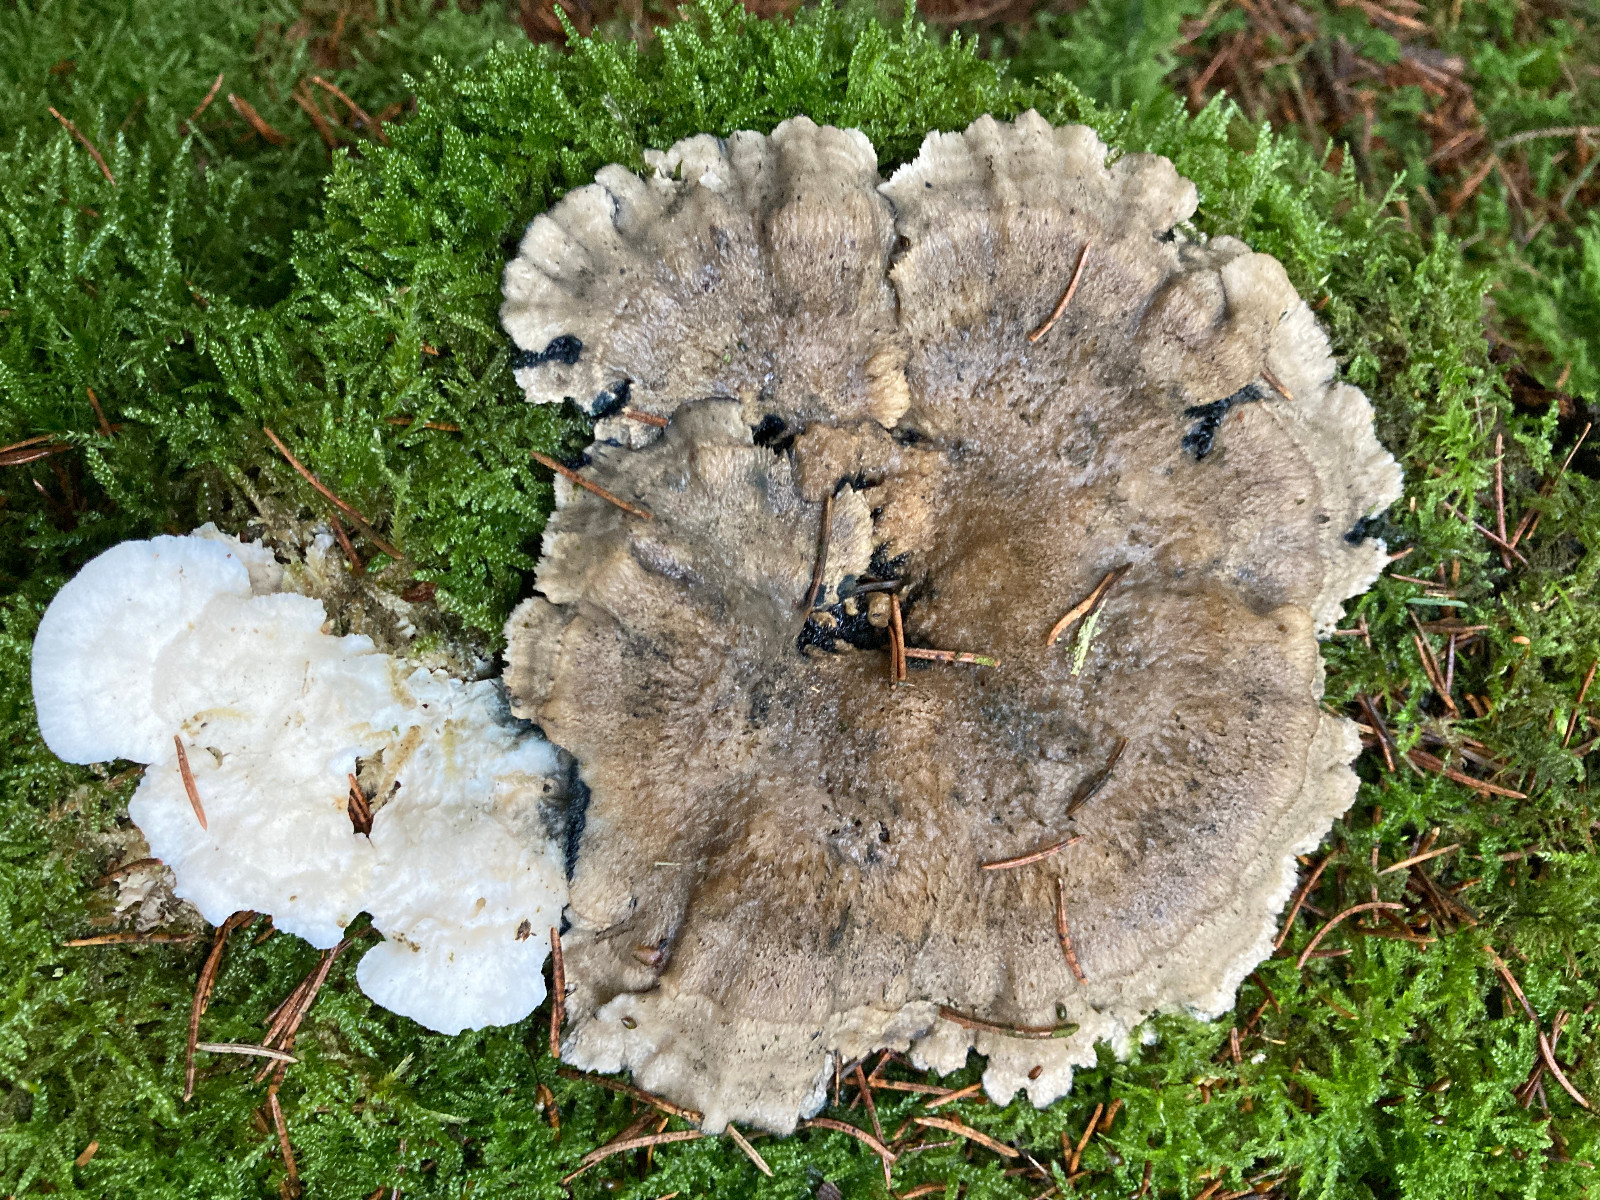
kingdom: Fungi
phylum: Basidiomycota
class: Agaricomycetes
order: Polyporales
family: Polyporaceae
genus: Cyanosporus
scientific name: Cyanosporus cyanescens
